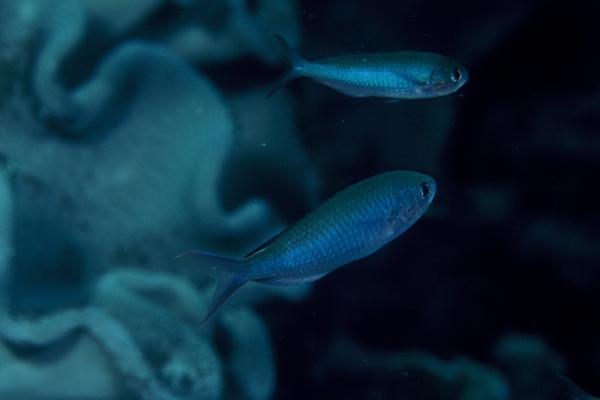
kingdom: Animalia
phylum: Chordata
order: Perciformes
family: Pomacentridae
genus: Lepidozygus
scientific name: Lepidozygus tapeinosoma
